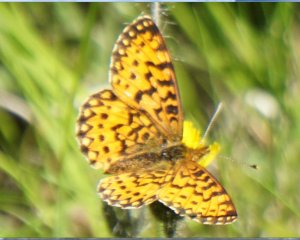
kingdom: Animalia
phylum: Arthropoda
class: Insecta
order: Lepidoptera
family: Nymphalidae
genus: Boloria
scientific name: Boloria selene
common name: Silver-bordered Fritillary
